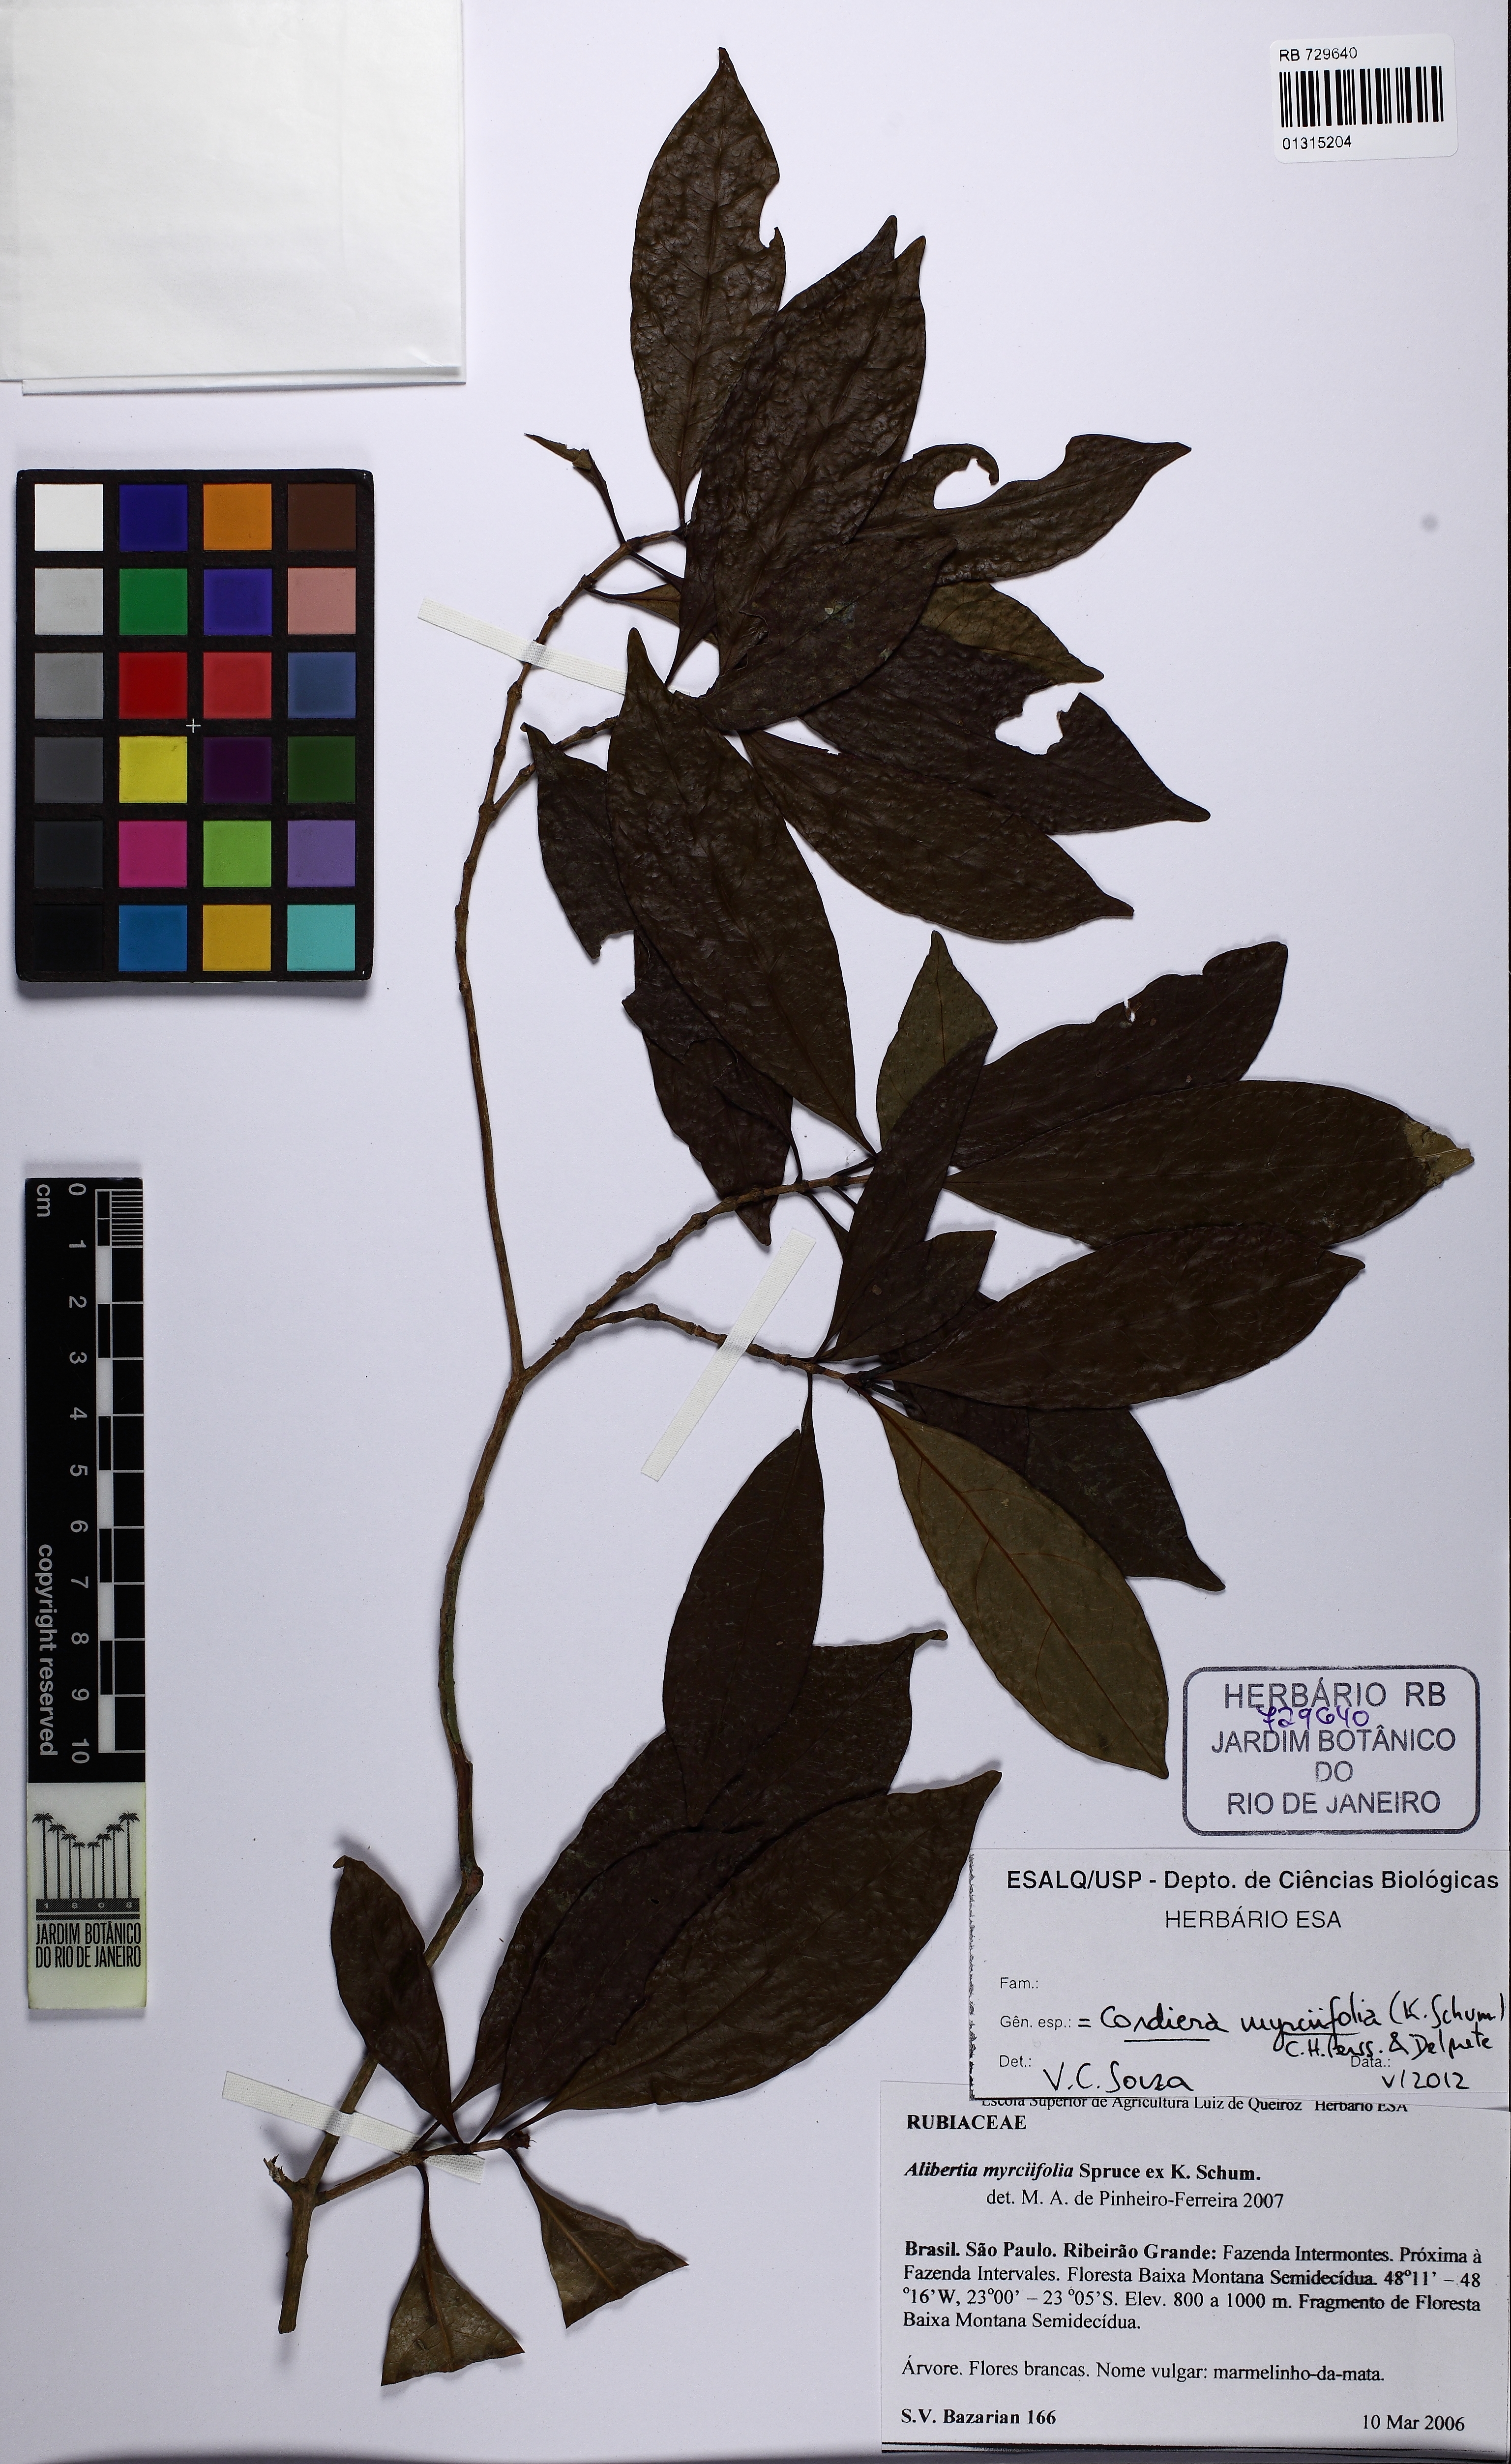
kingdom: Plantae
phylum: Tracheophyta
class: Magnoliopsida
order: Gentianales
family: Rubiaceae
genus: Cordiera
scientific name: Cordiera myrciifolia
